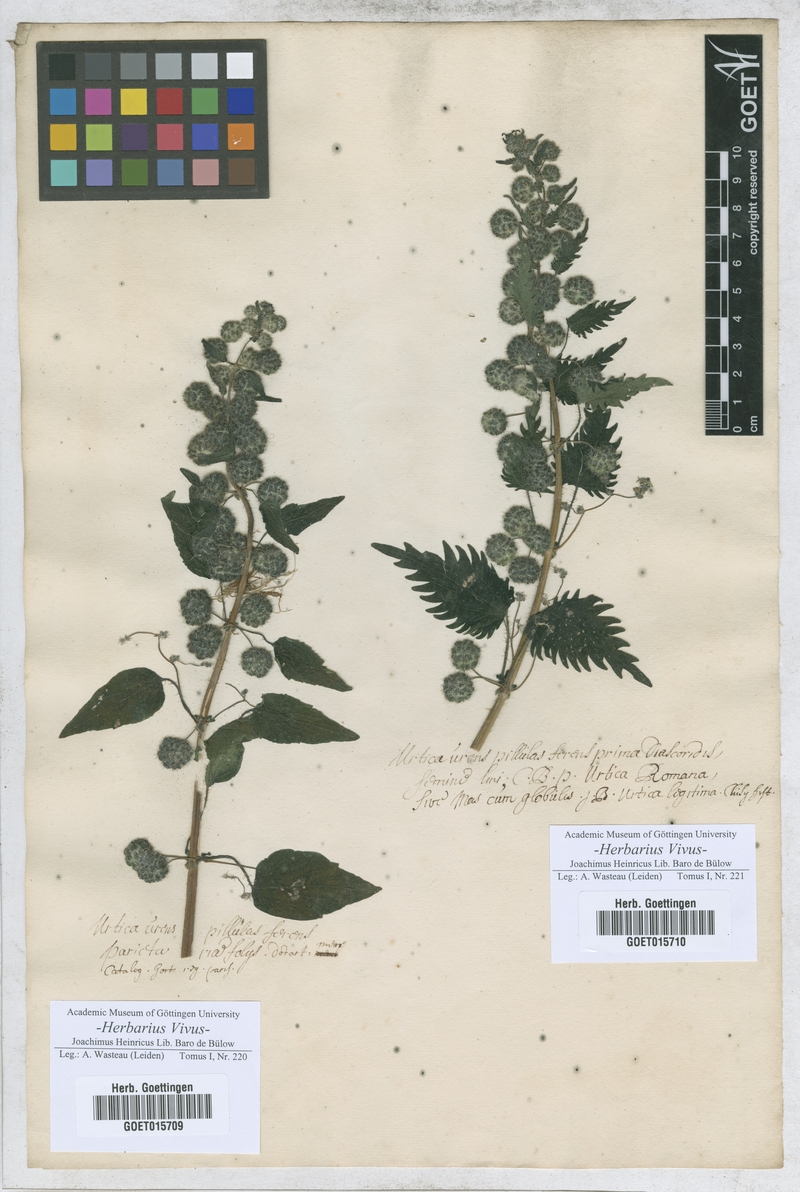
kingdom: Plantae
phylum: Tracheophyta
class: Magnoliopsida
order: Rosales
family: Urticaceae
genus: Urtica
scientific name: Urtica pilulifera
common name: Roman nettle
